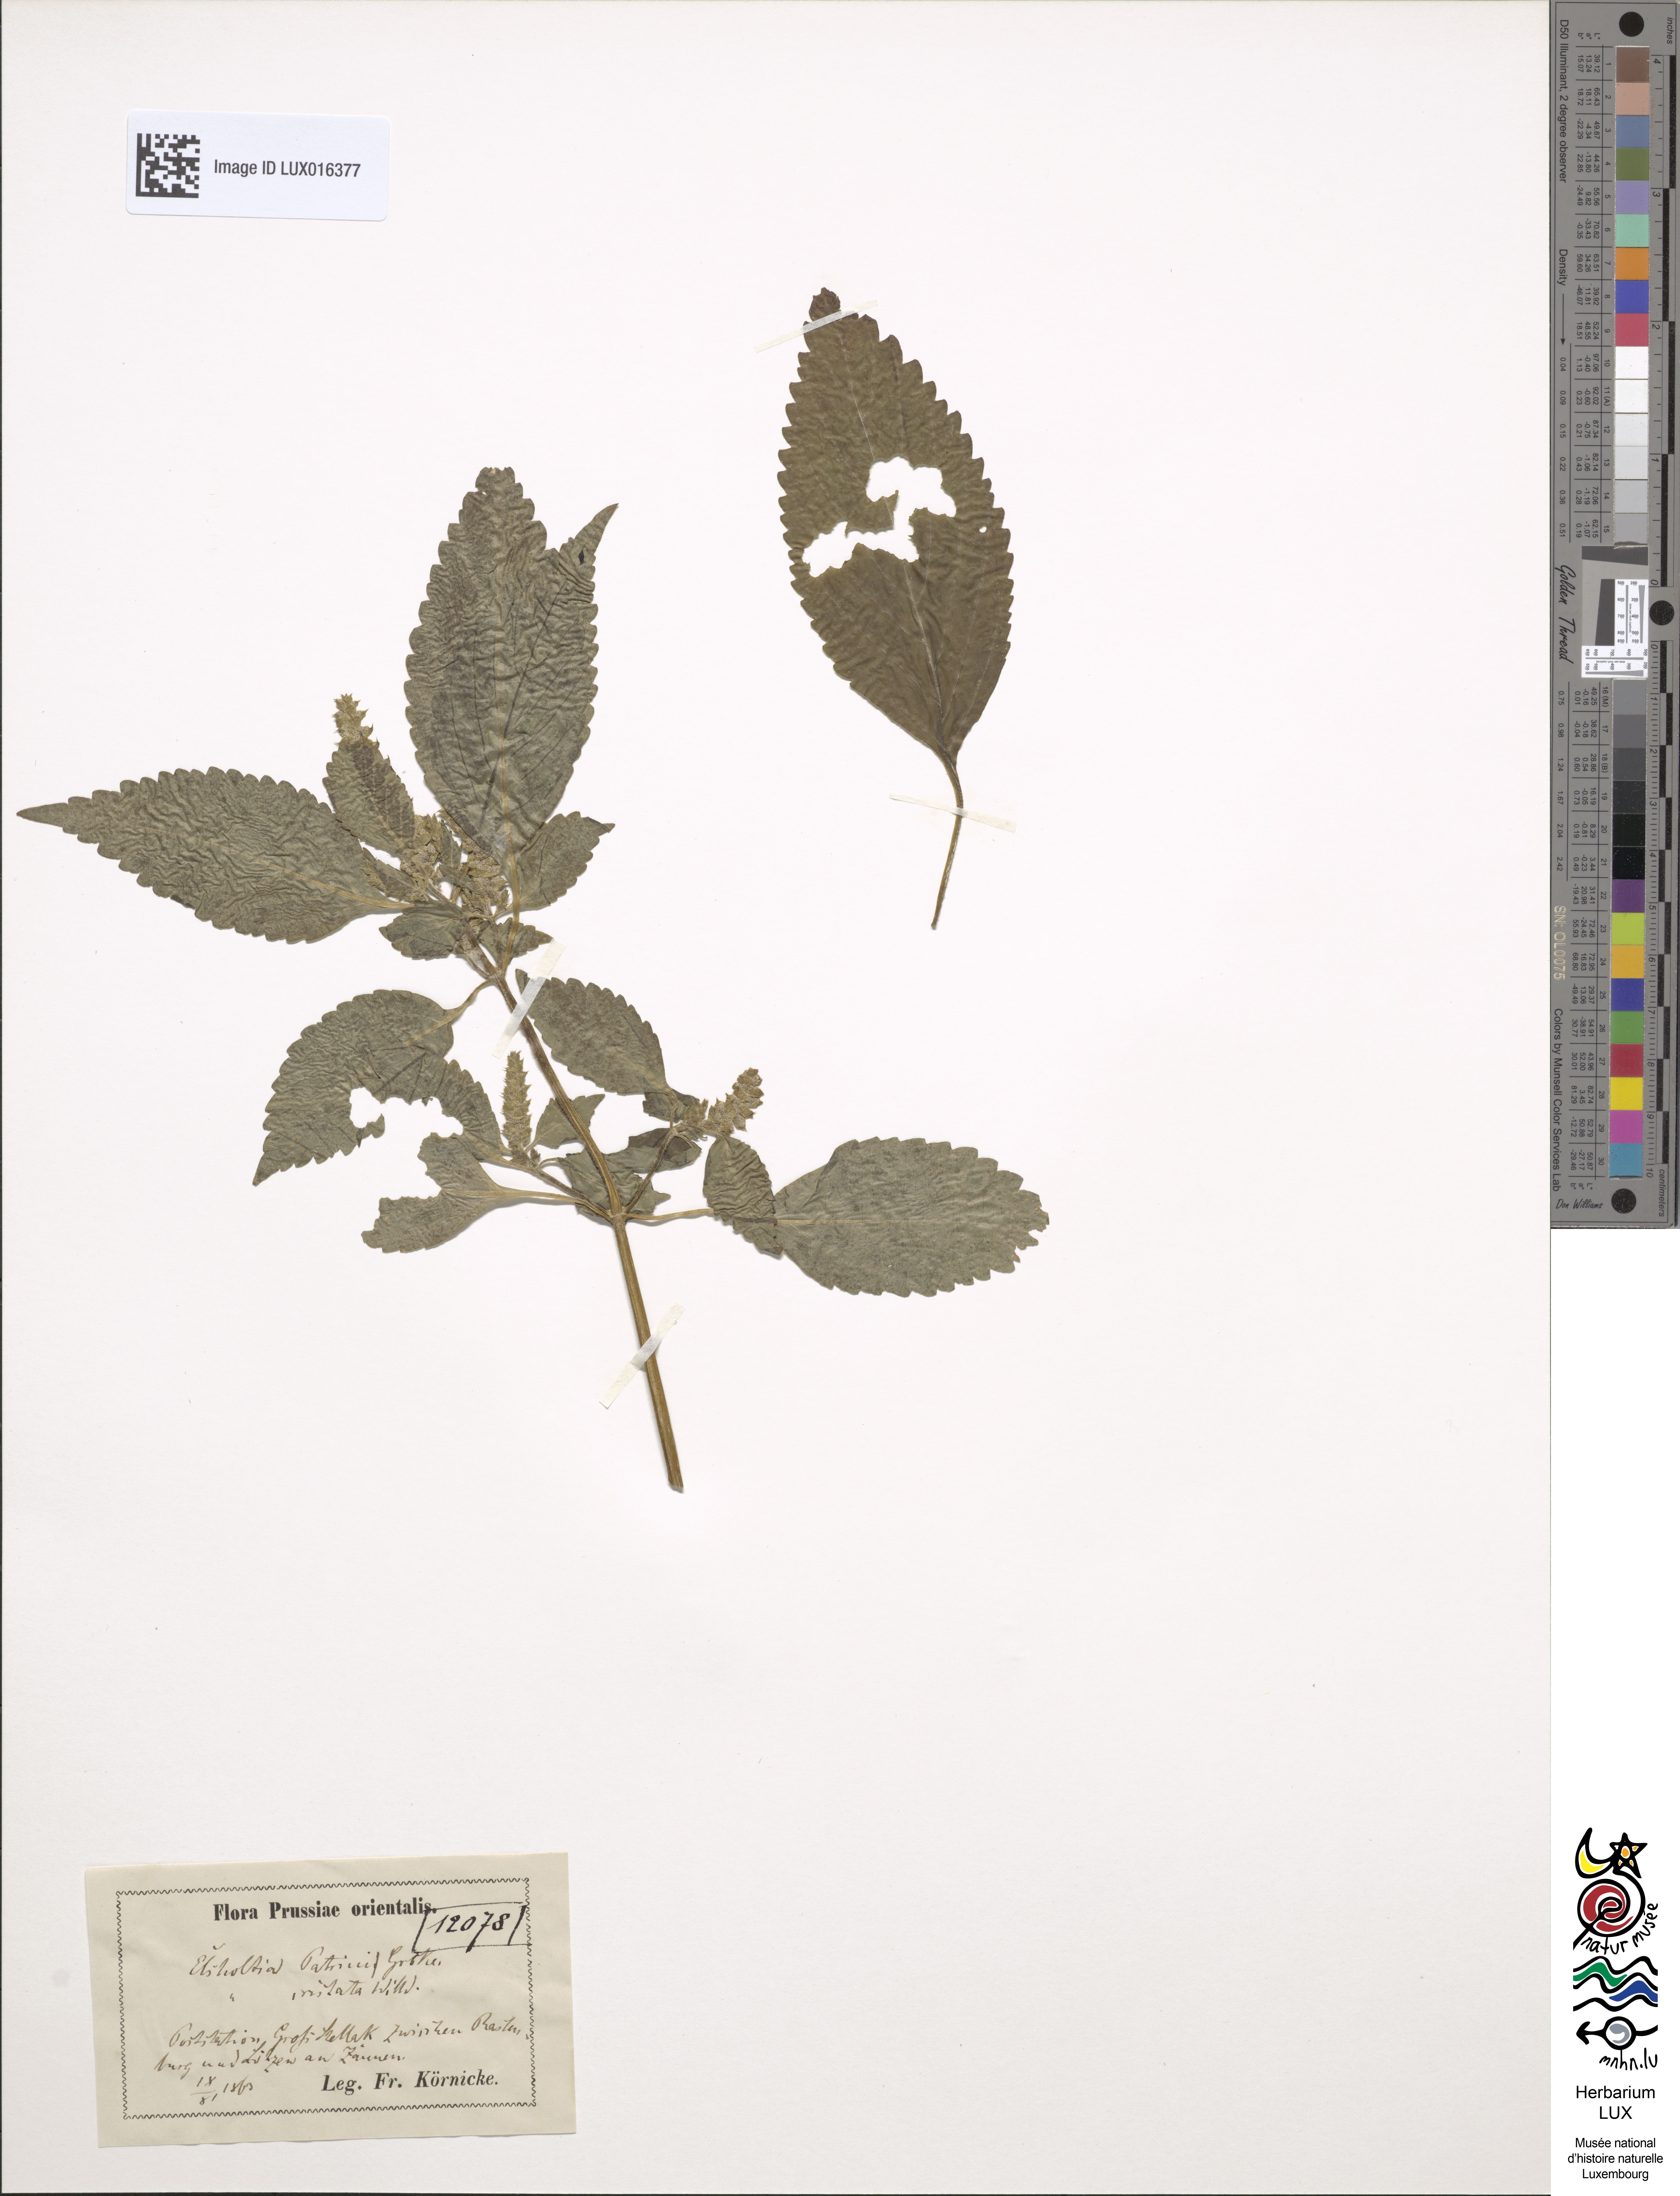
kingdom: Plantae
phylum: Tracheophyta
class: Magnoliopsida
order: Lamiales
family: Lamiaceae
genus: Elsholtzia
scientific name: Elsholtzia ciliata
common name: Ciliate elsholtzia
